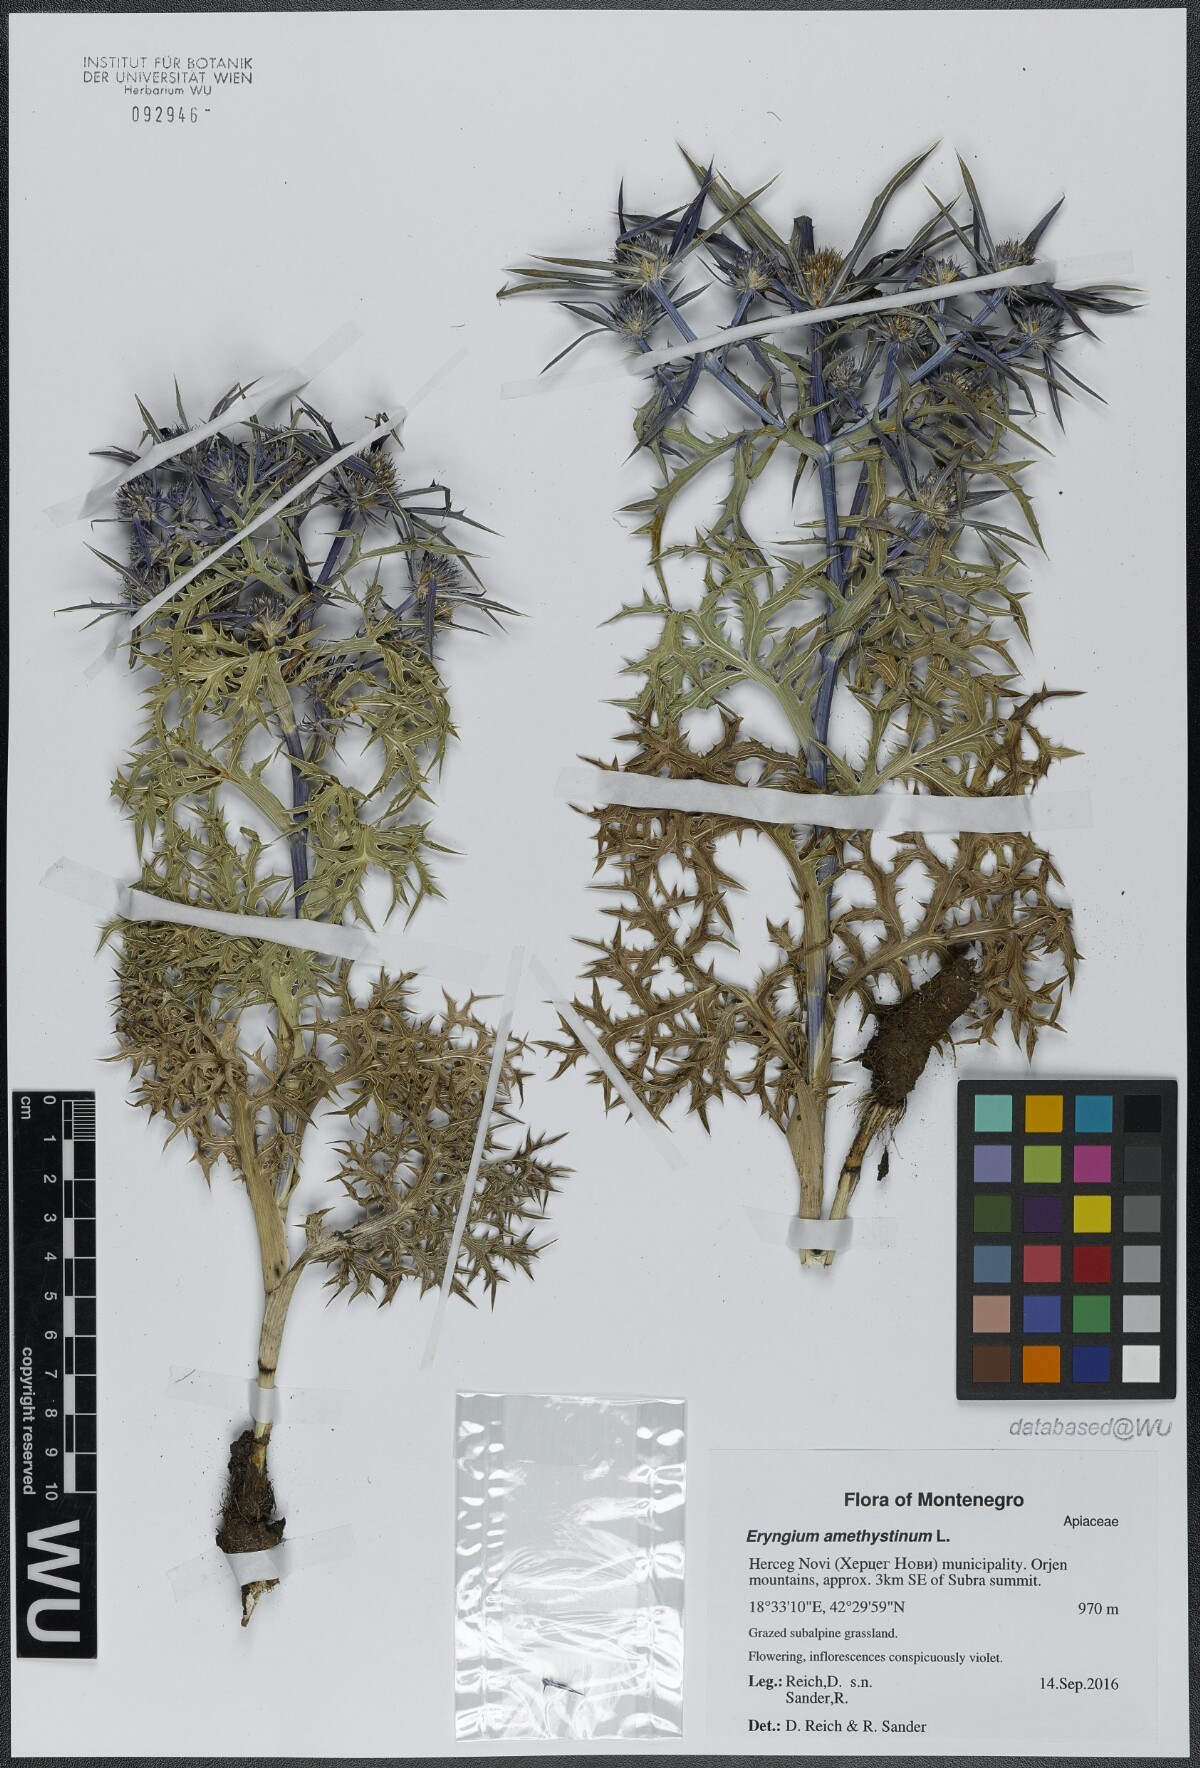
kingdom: Plantae
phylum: Tracheophyta
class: Magnoliopsida
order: Apiales
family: Apiaceae
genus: Eryngium
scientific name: Eryngium amethystinum
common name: Amethyst eryngo
